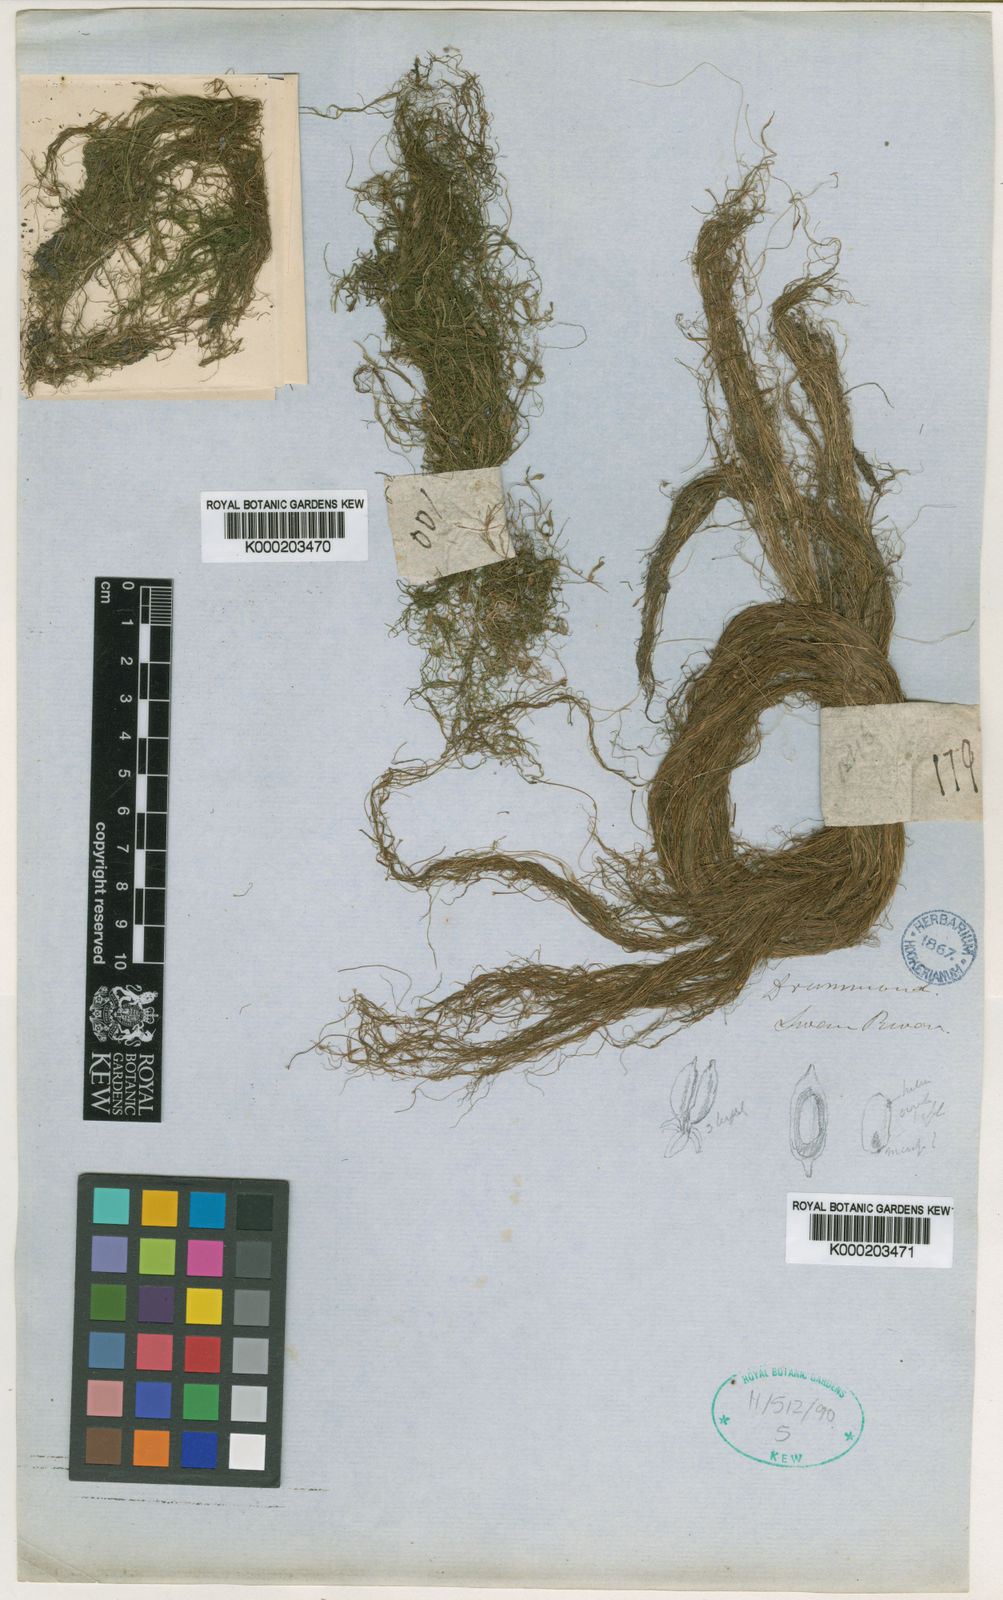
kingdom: Plantae
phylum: Tracheophyta
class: Liliopsida
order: Alismatales
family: Potamogetonaceae
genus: Althenia
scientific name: Althenia australis
